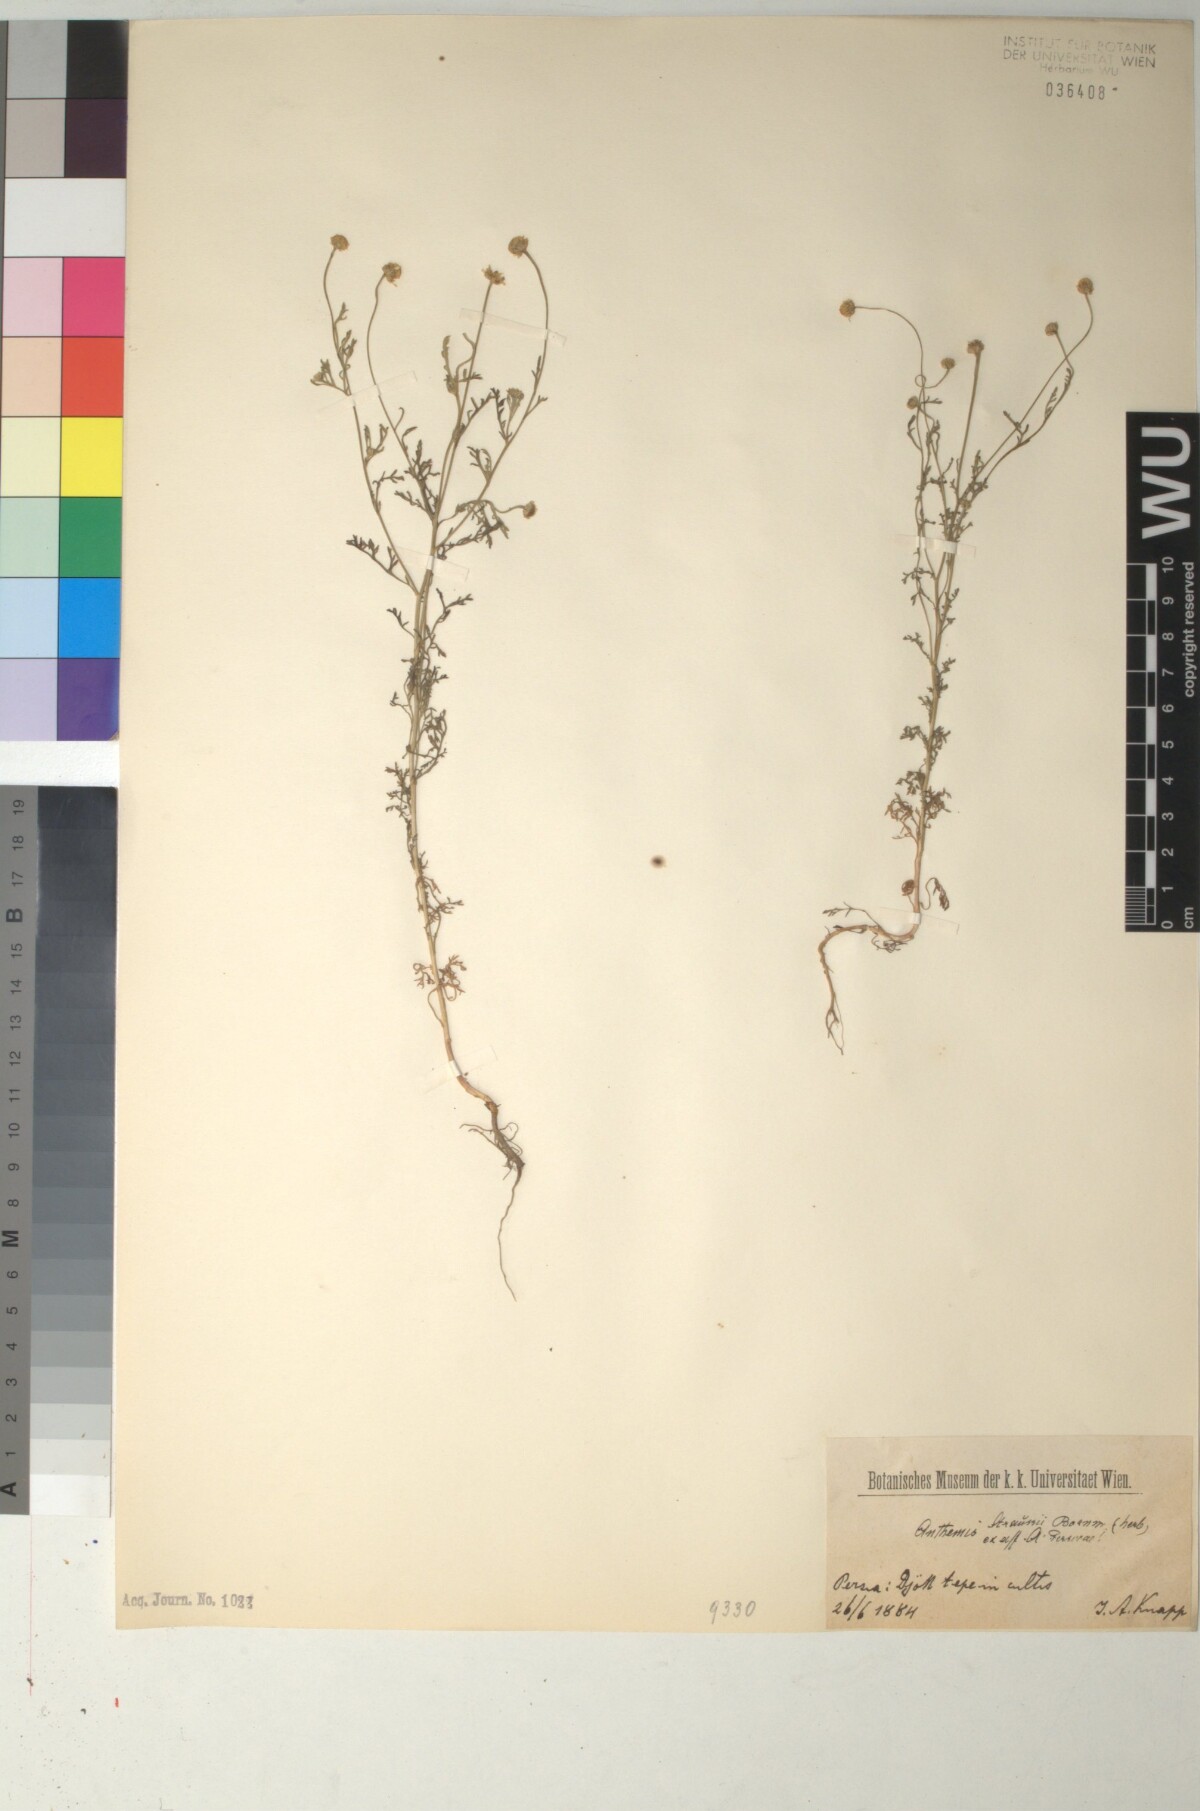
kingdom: Plantae
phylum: Tracheophyta
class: Magnoliopsida
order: Asterales
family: Asteraceae
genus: Anthemis
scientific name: Anthemis microcephala
